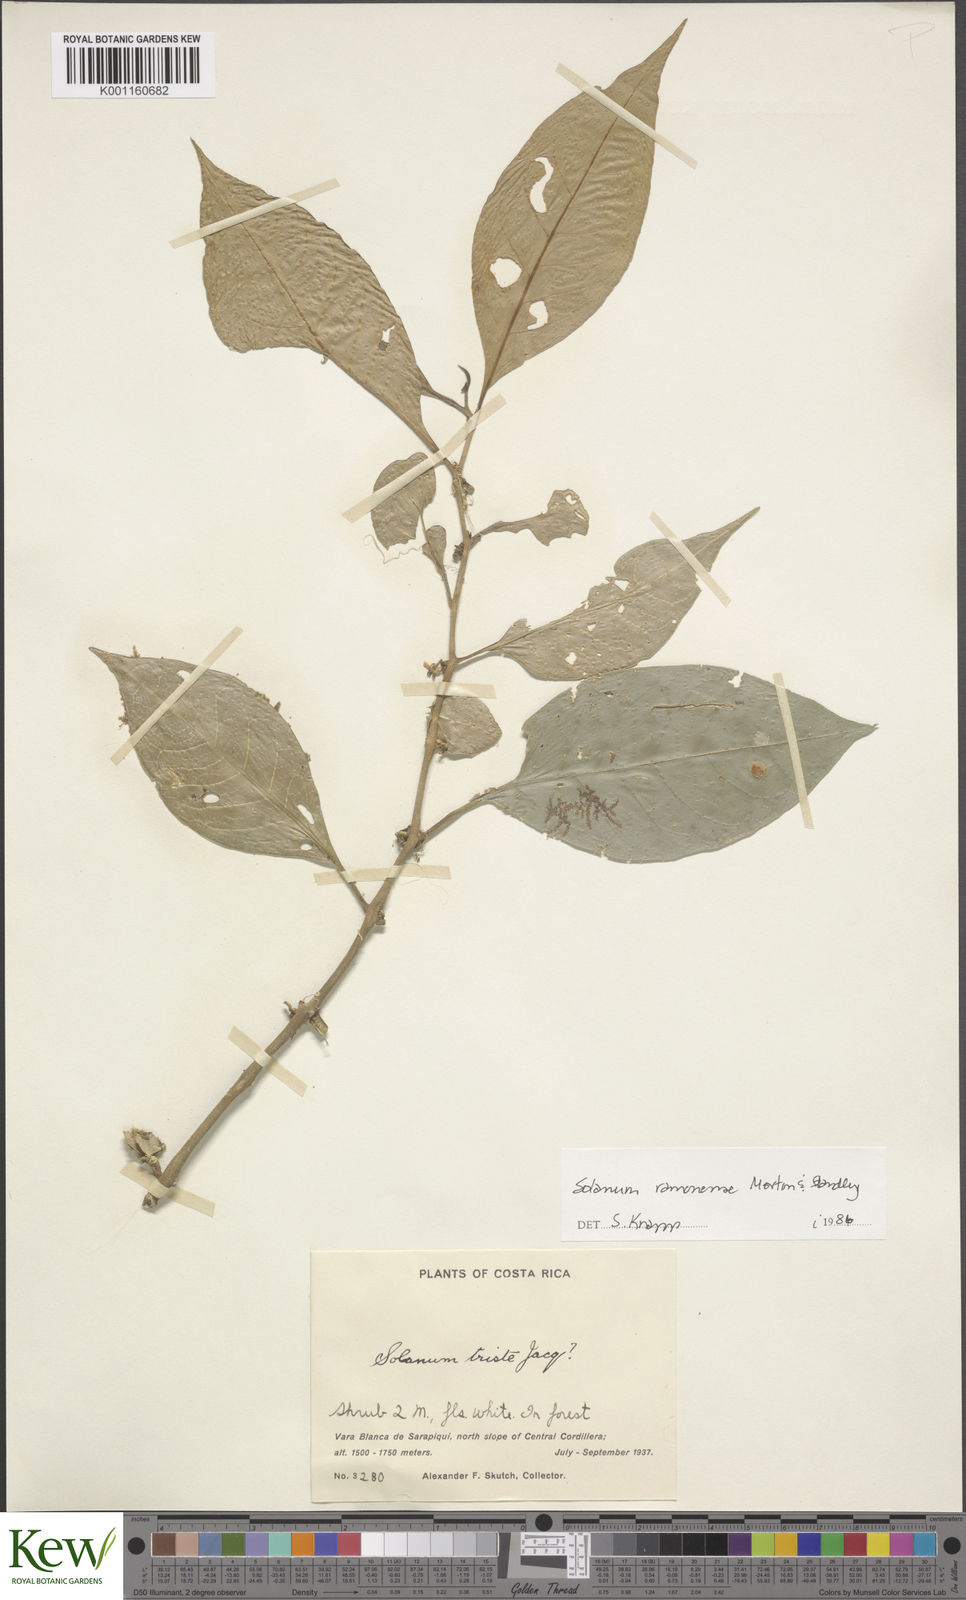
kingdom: Plantae
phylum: Tracheophyta
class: Magnoliopsida
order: Solanales
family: Solanaceae
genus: Solanum
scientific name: Solanum ramonense
